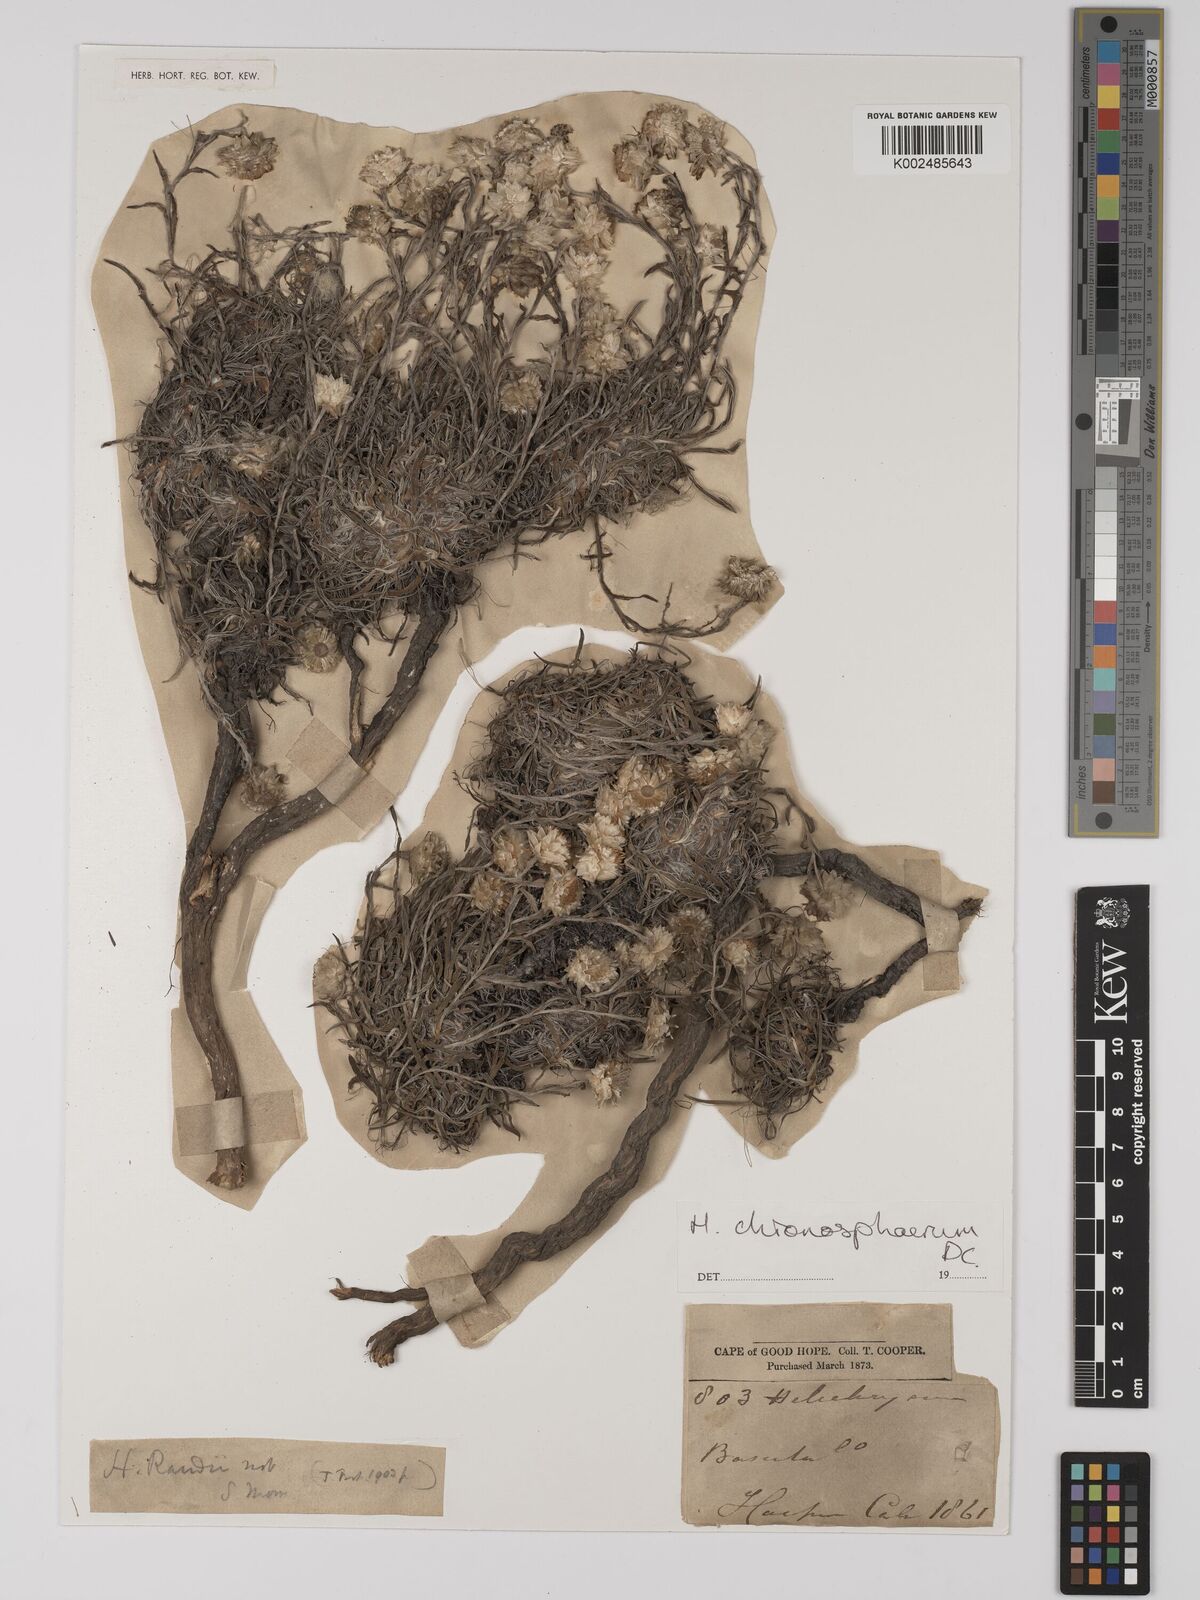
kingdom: Plantae
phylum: Tracheophyta
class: Magnoliopsida
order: Asterales
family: Asteraceae
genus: Helichrysum
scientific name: Helichrysum chionosphaerum
